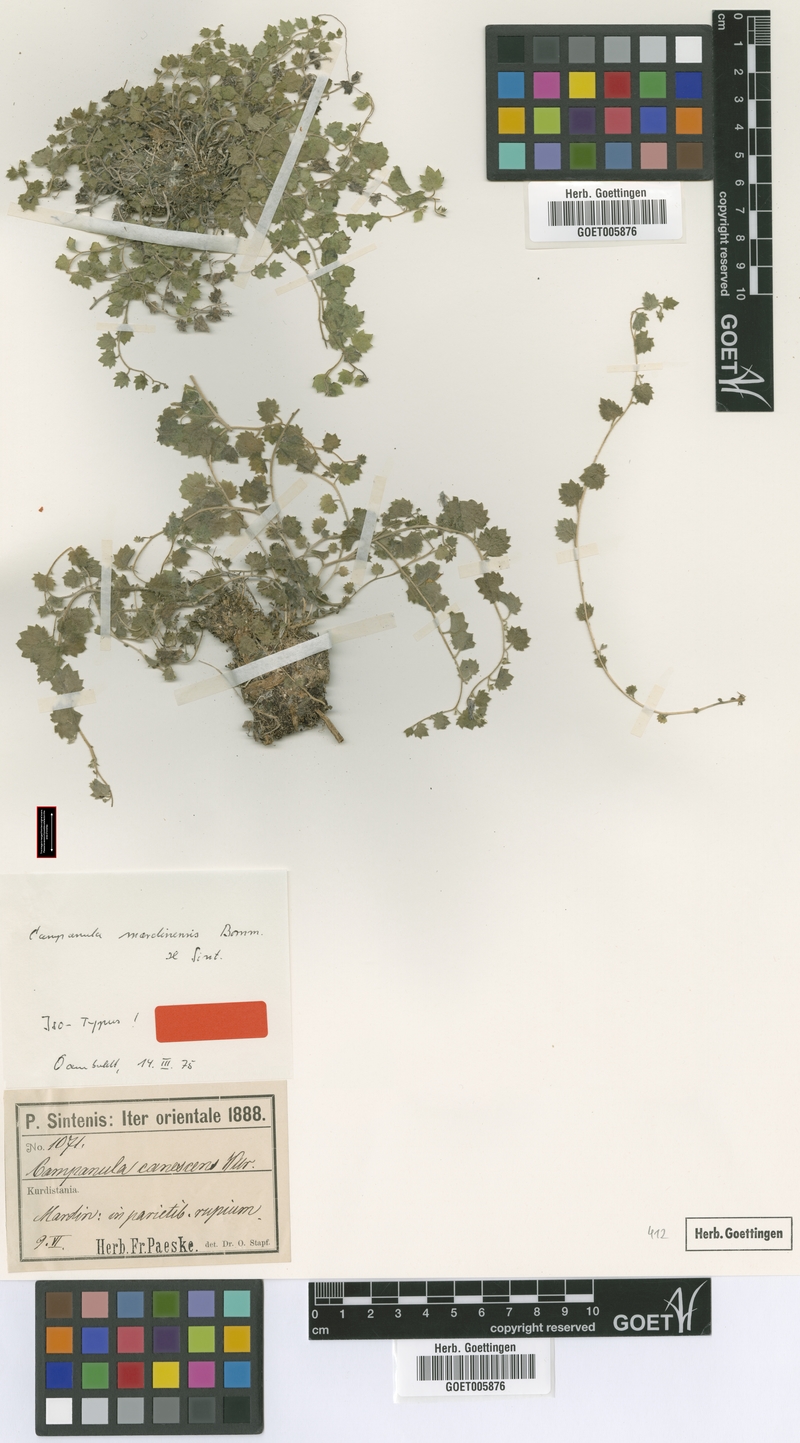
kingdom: Plantae
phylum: Tracheophyta
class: Magnoliopsida
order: Asterales
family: Campanulaceae
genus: Campanula
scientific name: Campanula mardinensis
